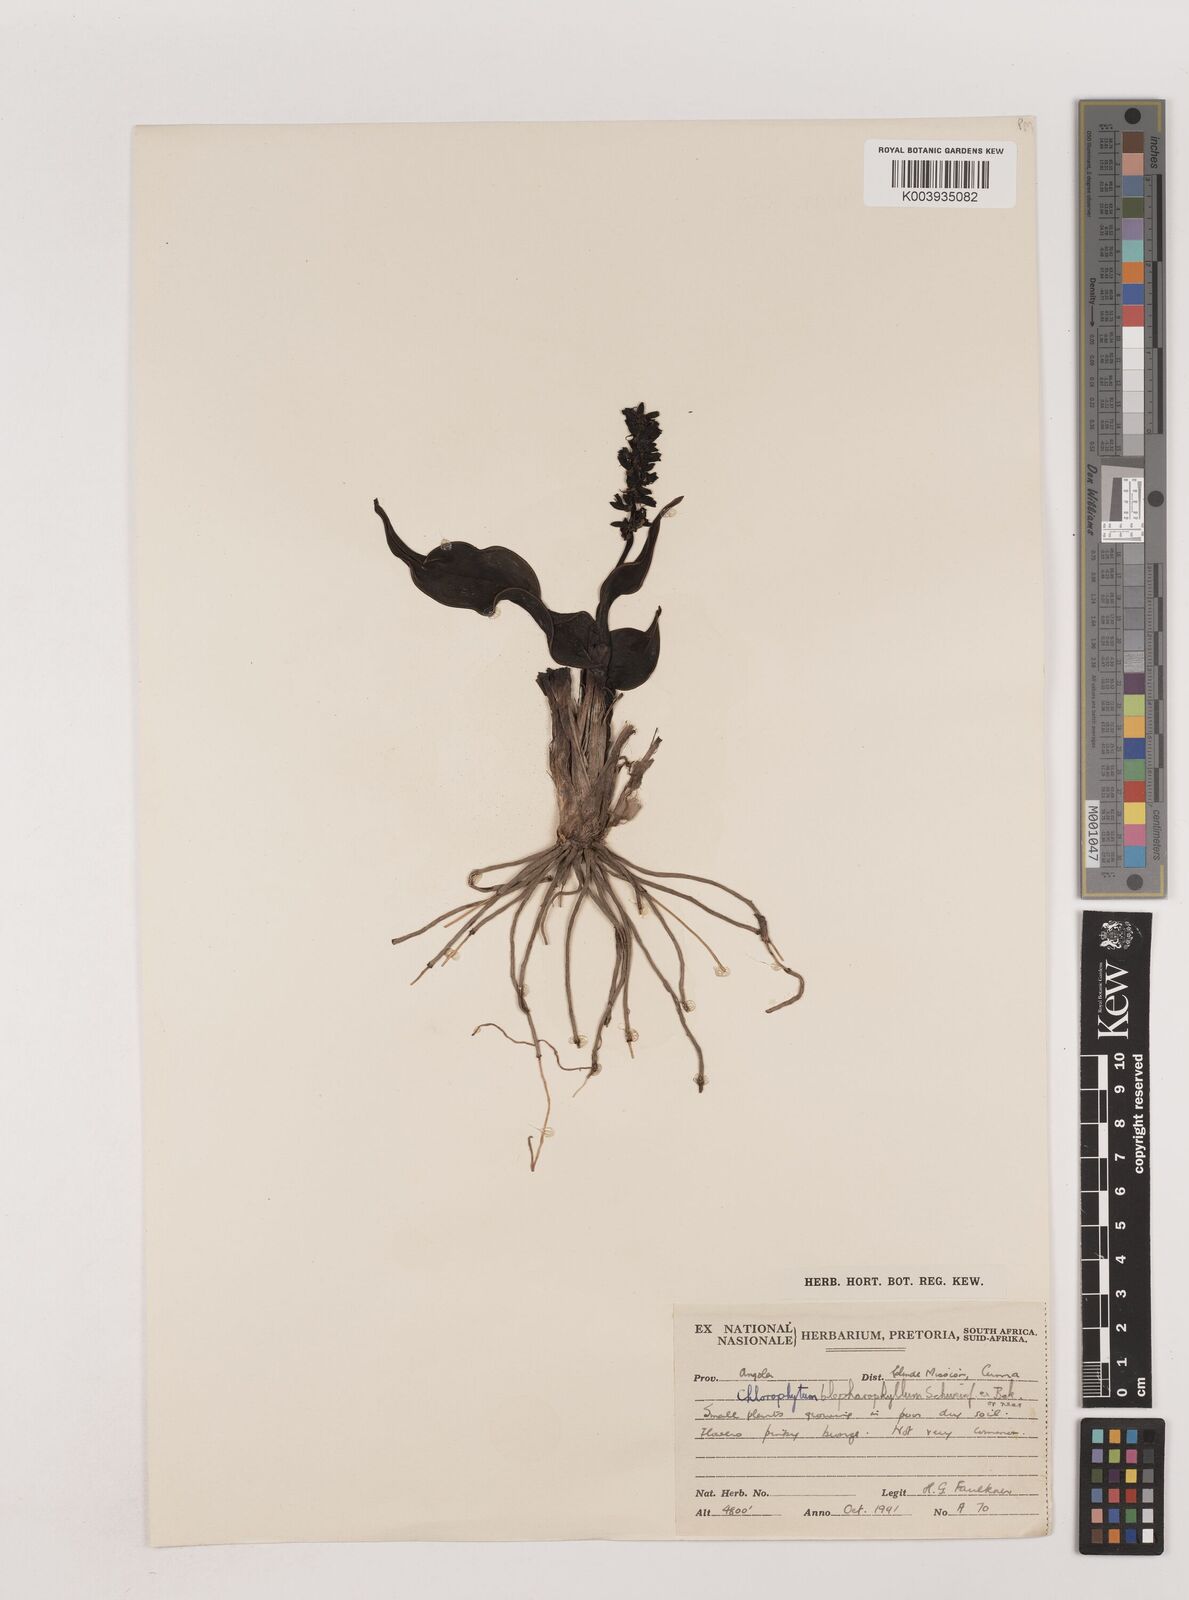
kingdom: Plantae
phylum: Tracheophyta
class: Liliopsida
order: Asparagales
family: Asparagaceae
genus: Chlorophytum
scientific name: Chlorophytum blepharophyllum
